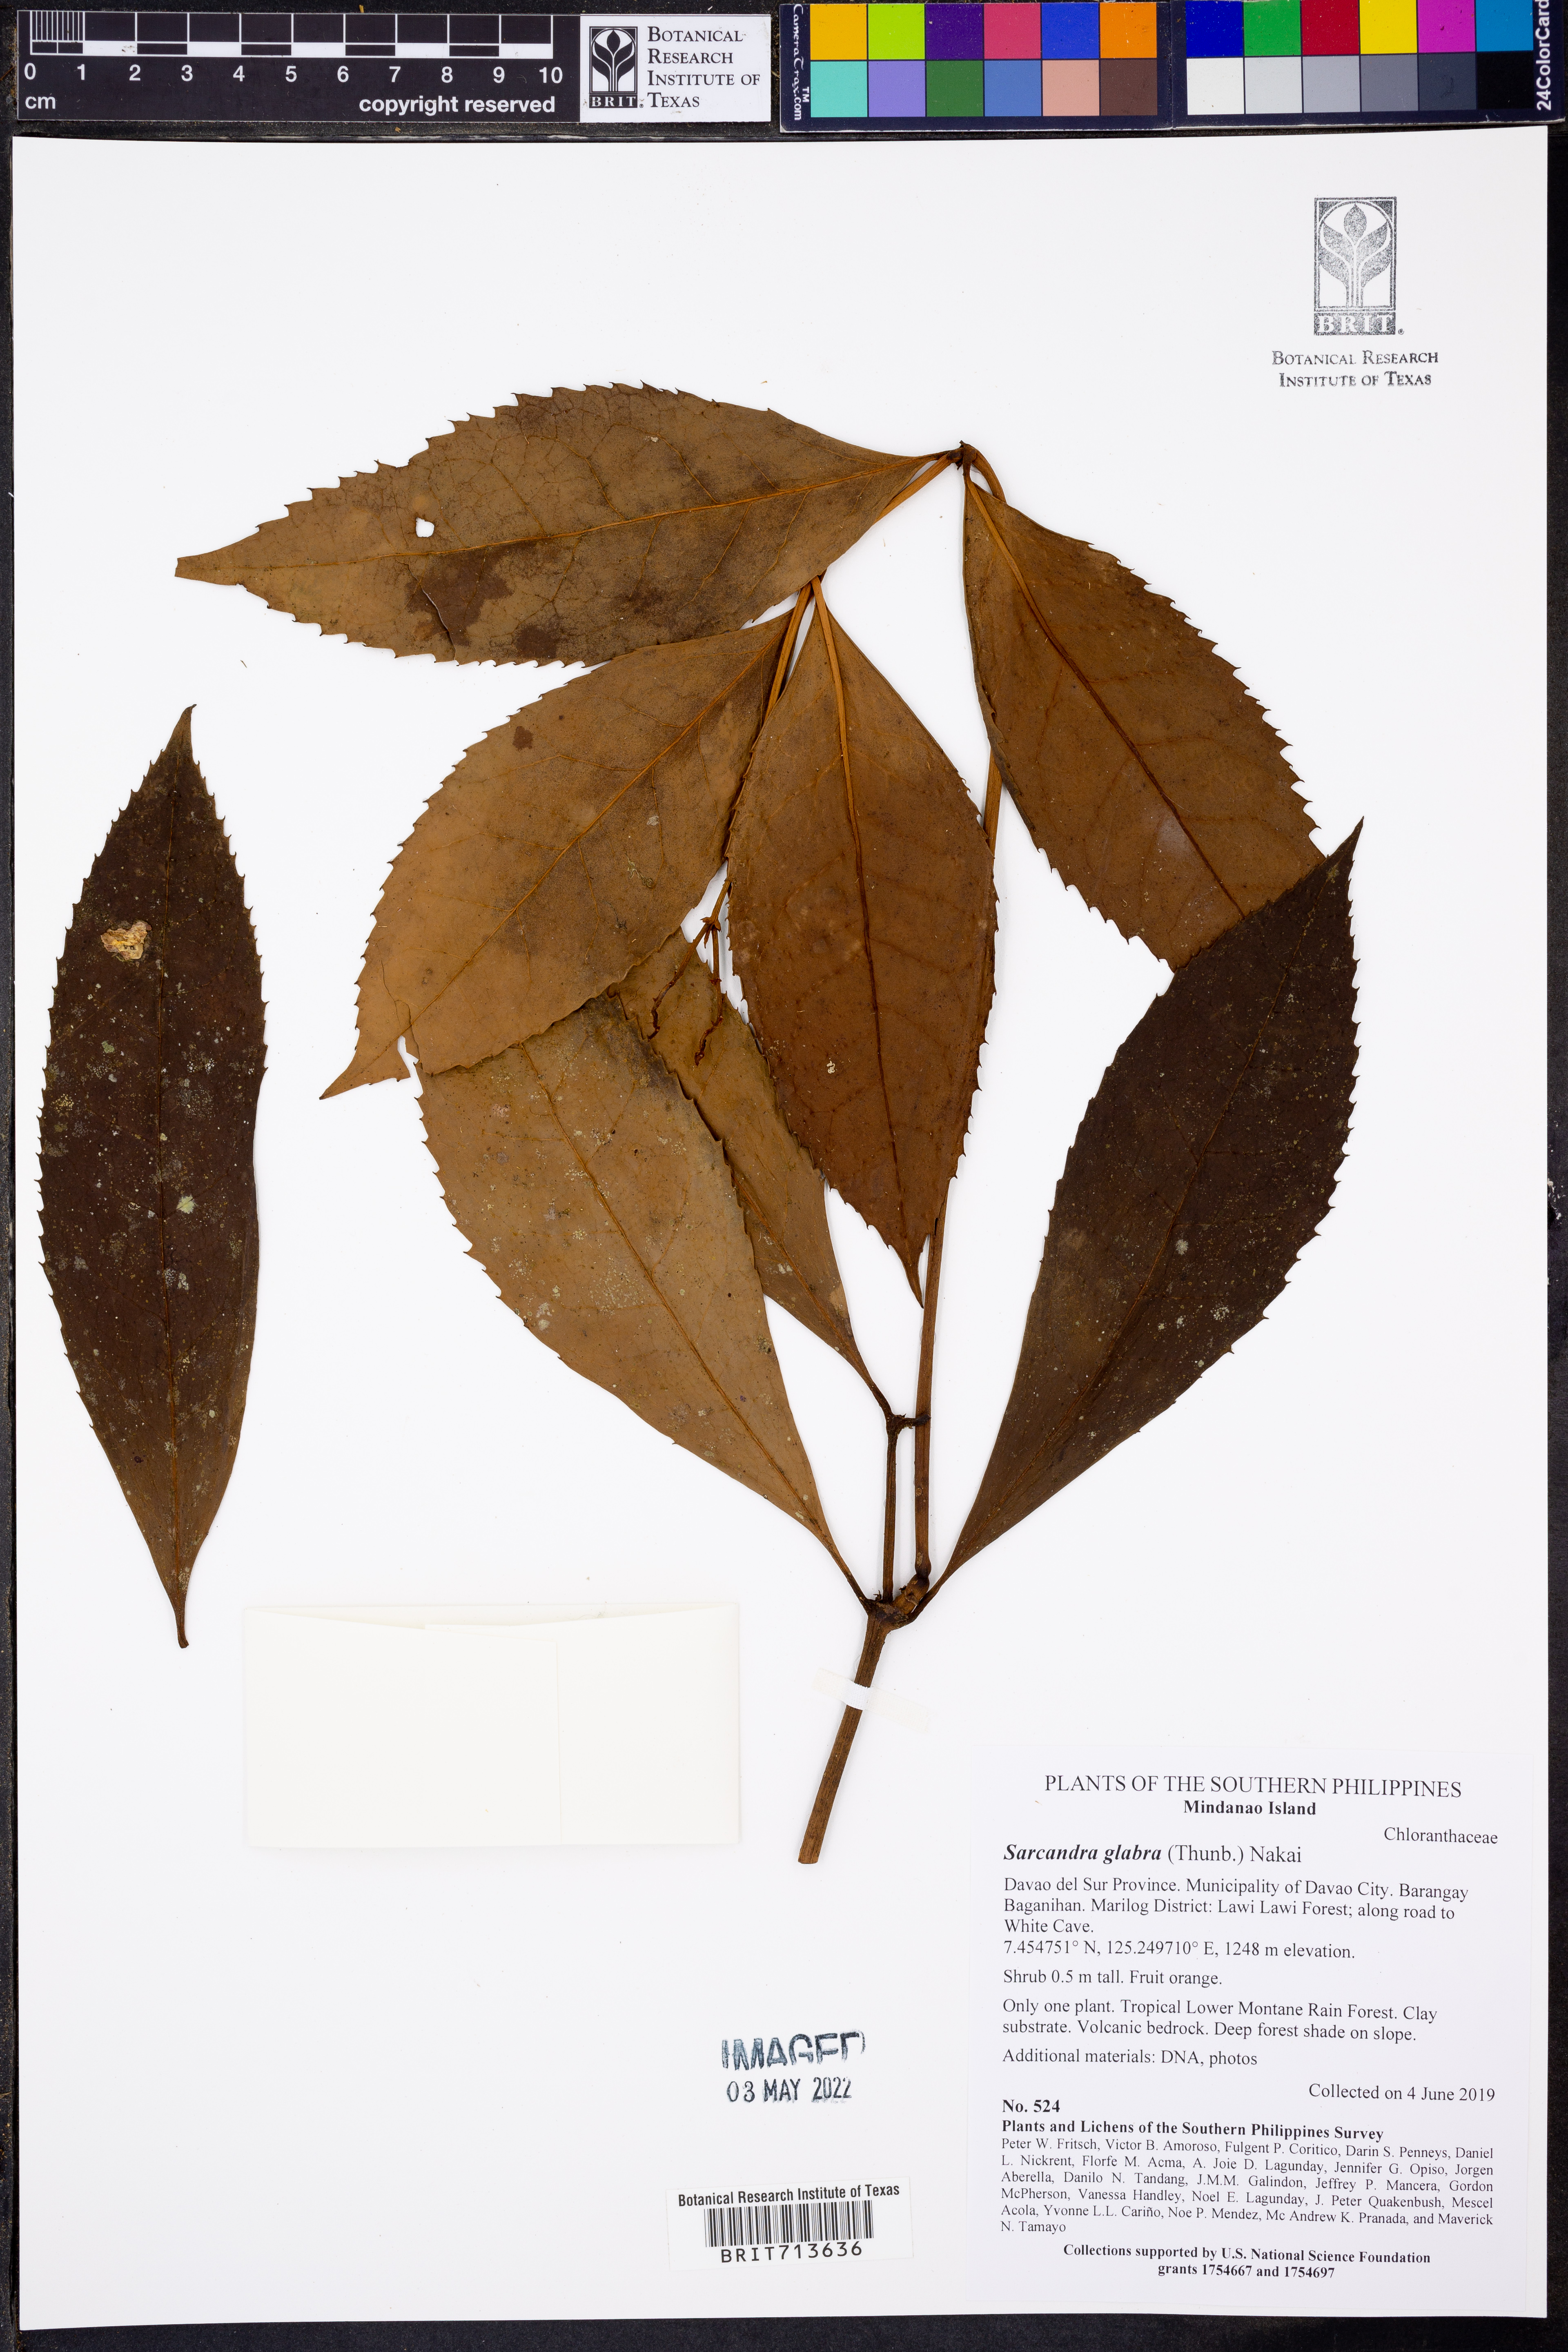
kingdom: Plantae
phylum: Tracheophyta
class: Magnoliopsida
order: Chloranthales
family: Chloranthaceae
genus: Sarcandra
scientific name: Sarcandra glabra
